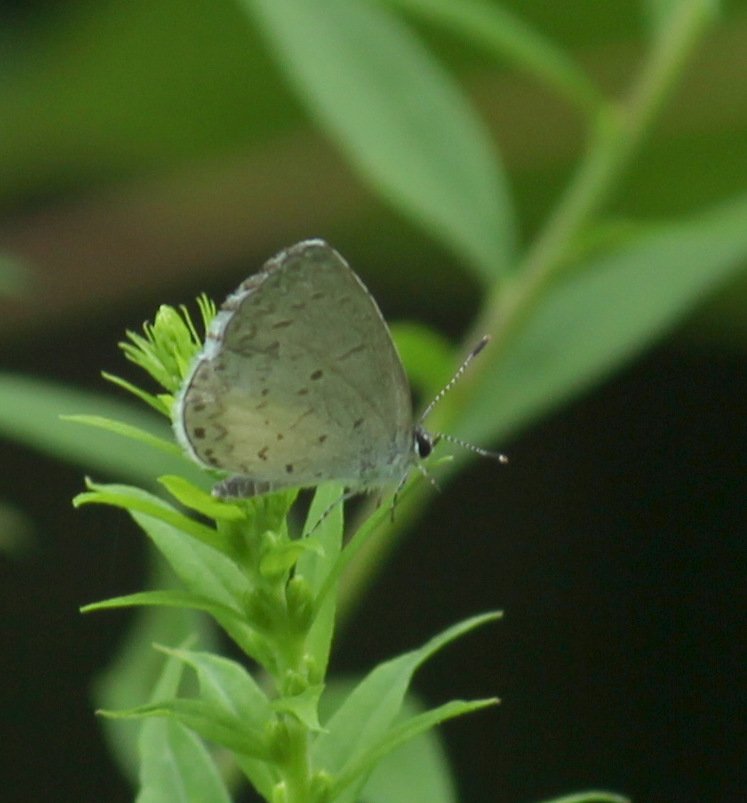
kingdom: Animalia
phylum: Arthropoda
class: Insecta
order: Lepidoptera
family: Lycaenidae
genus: Celastrina
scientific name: Celastrina
